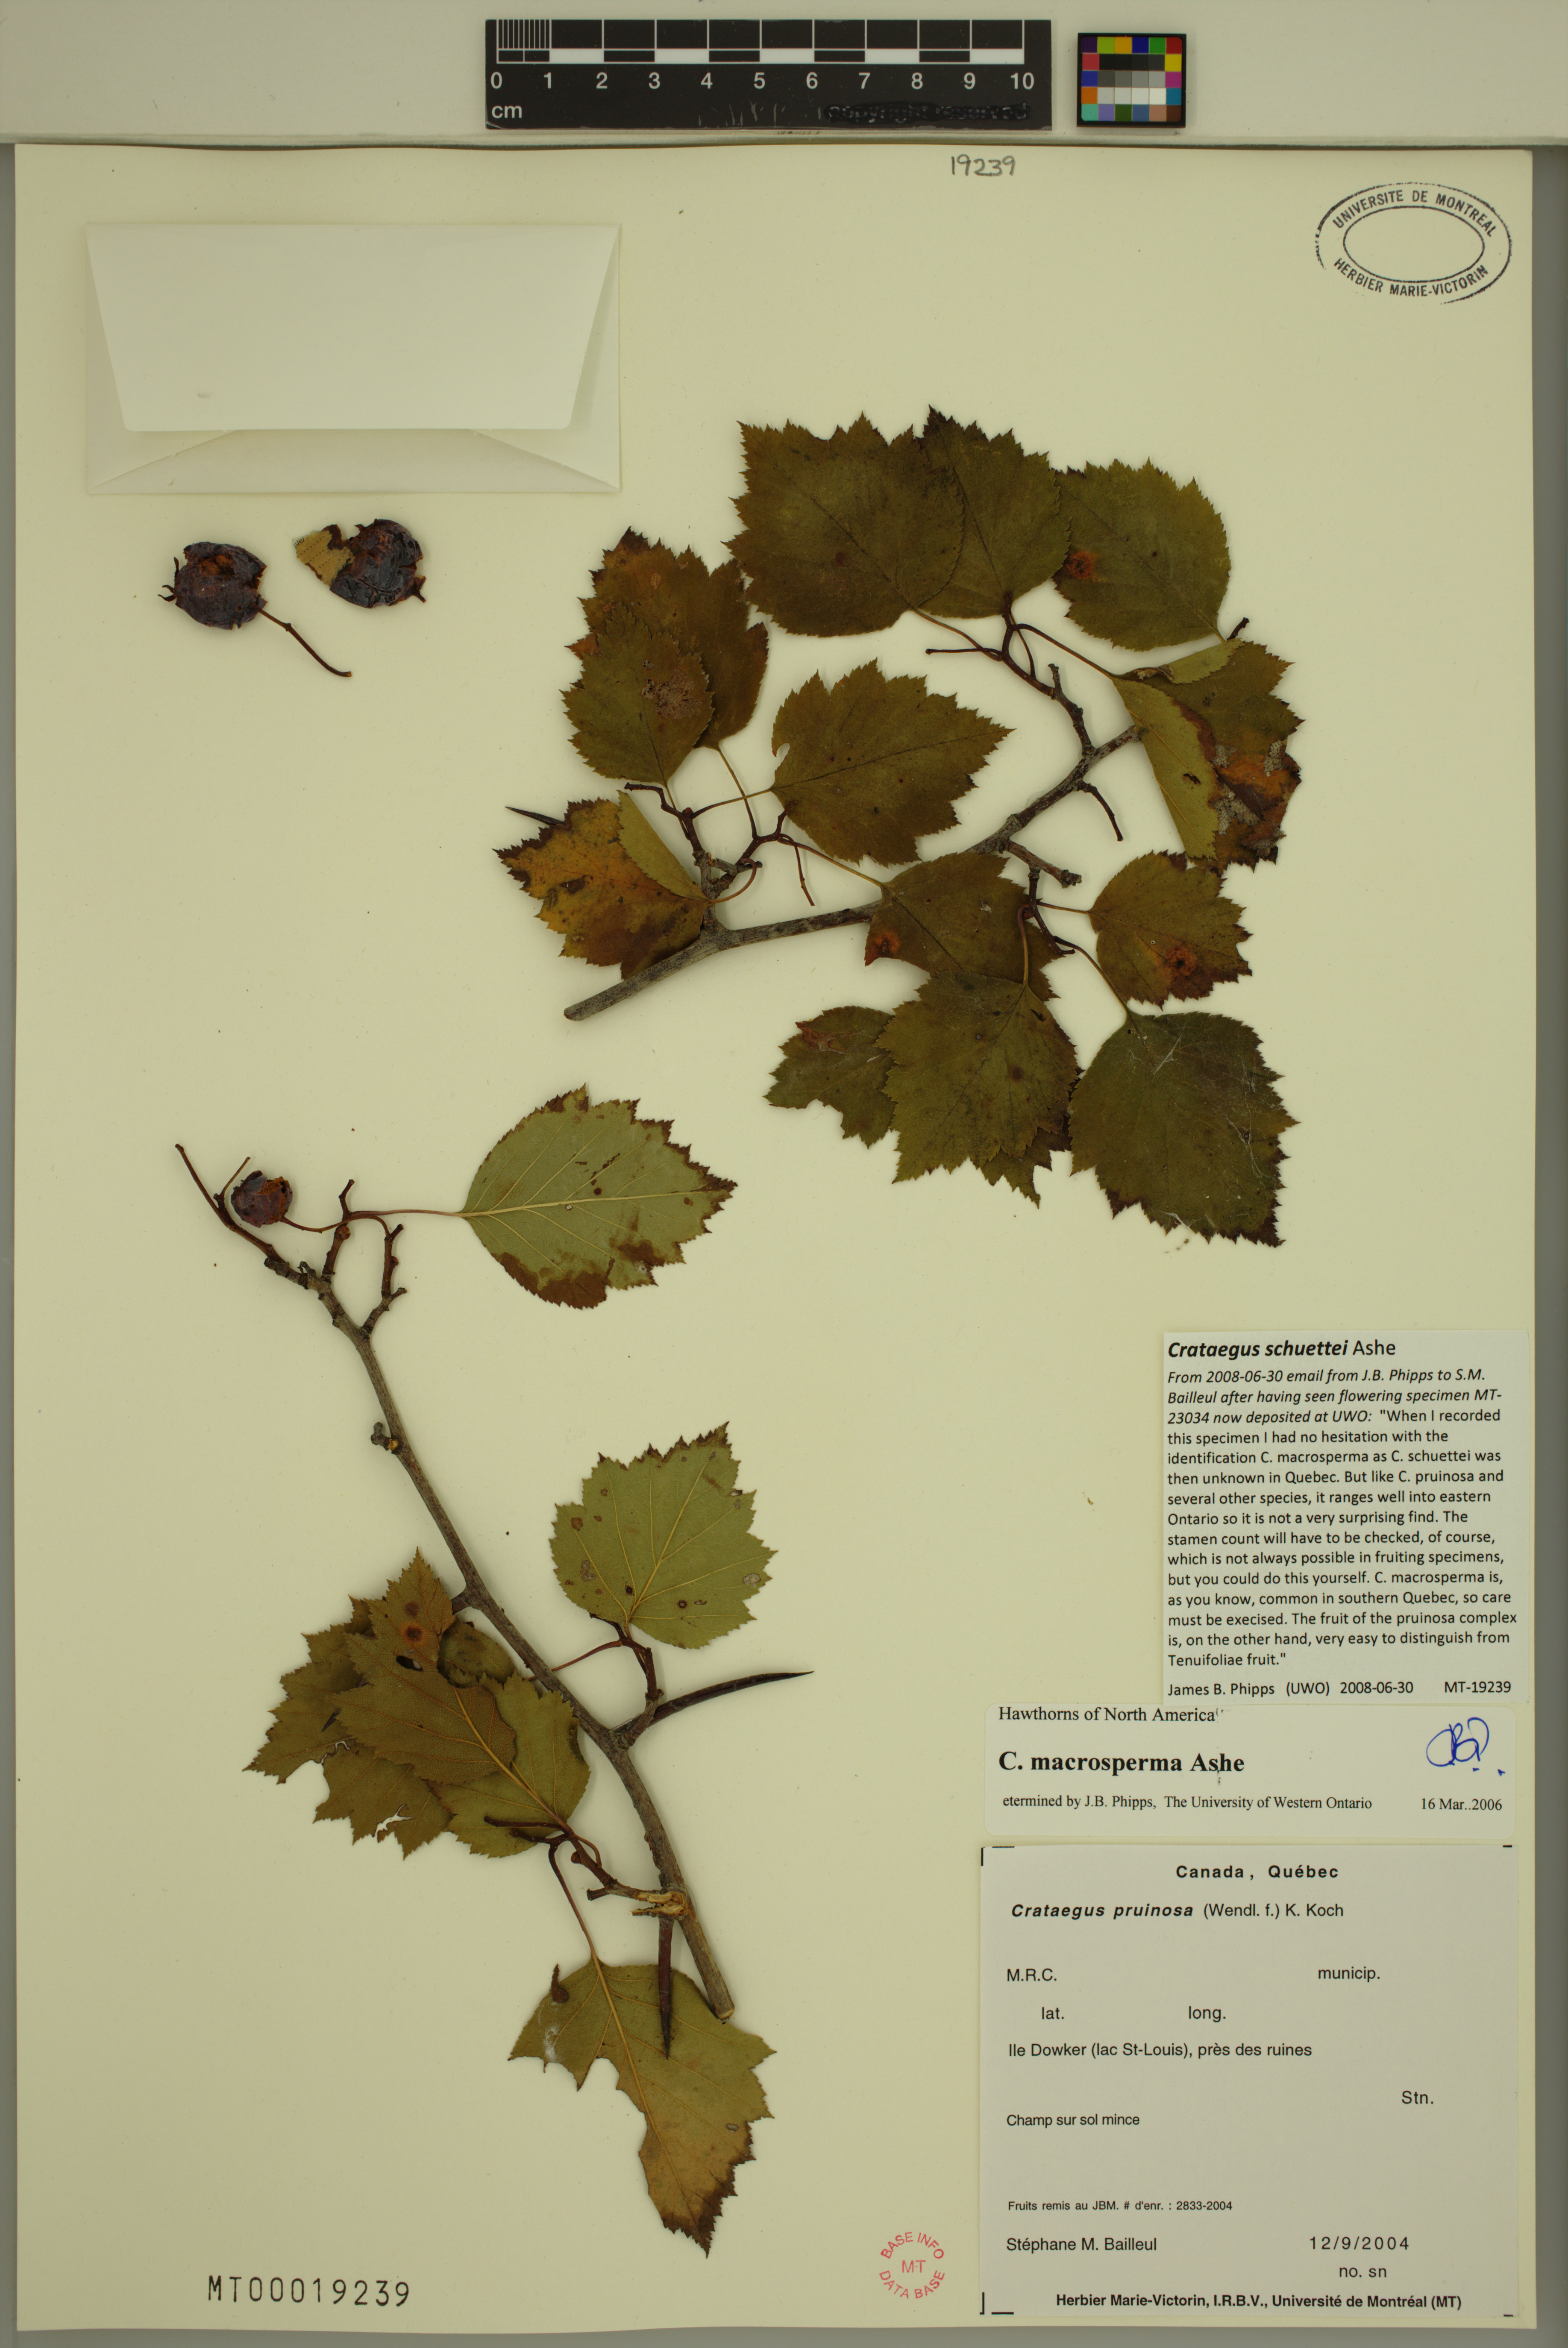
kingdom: Plantae
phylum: Tracheophyta
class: Magnoliopsida
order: Rosales
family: Rosaceae
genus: Crataegus
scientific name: Crataegus schuettei
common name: Schuette's hawthorn
